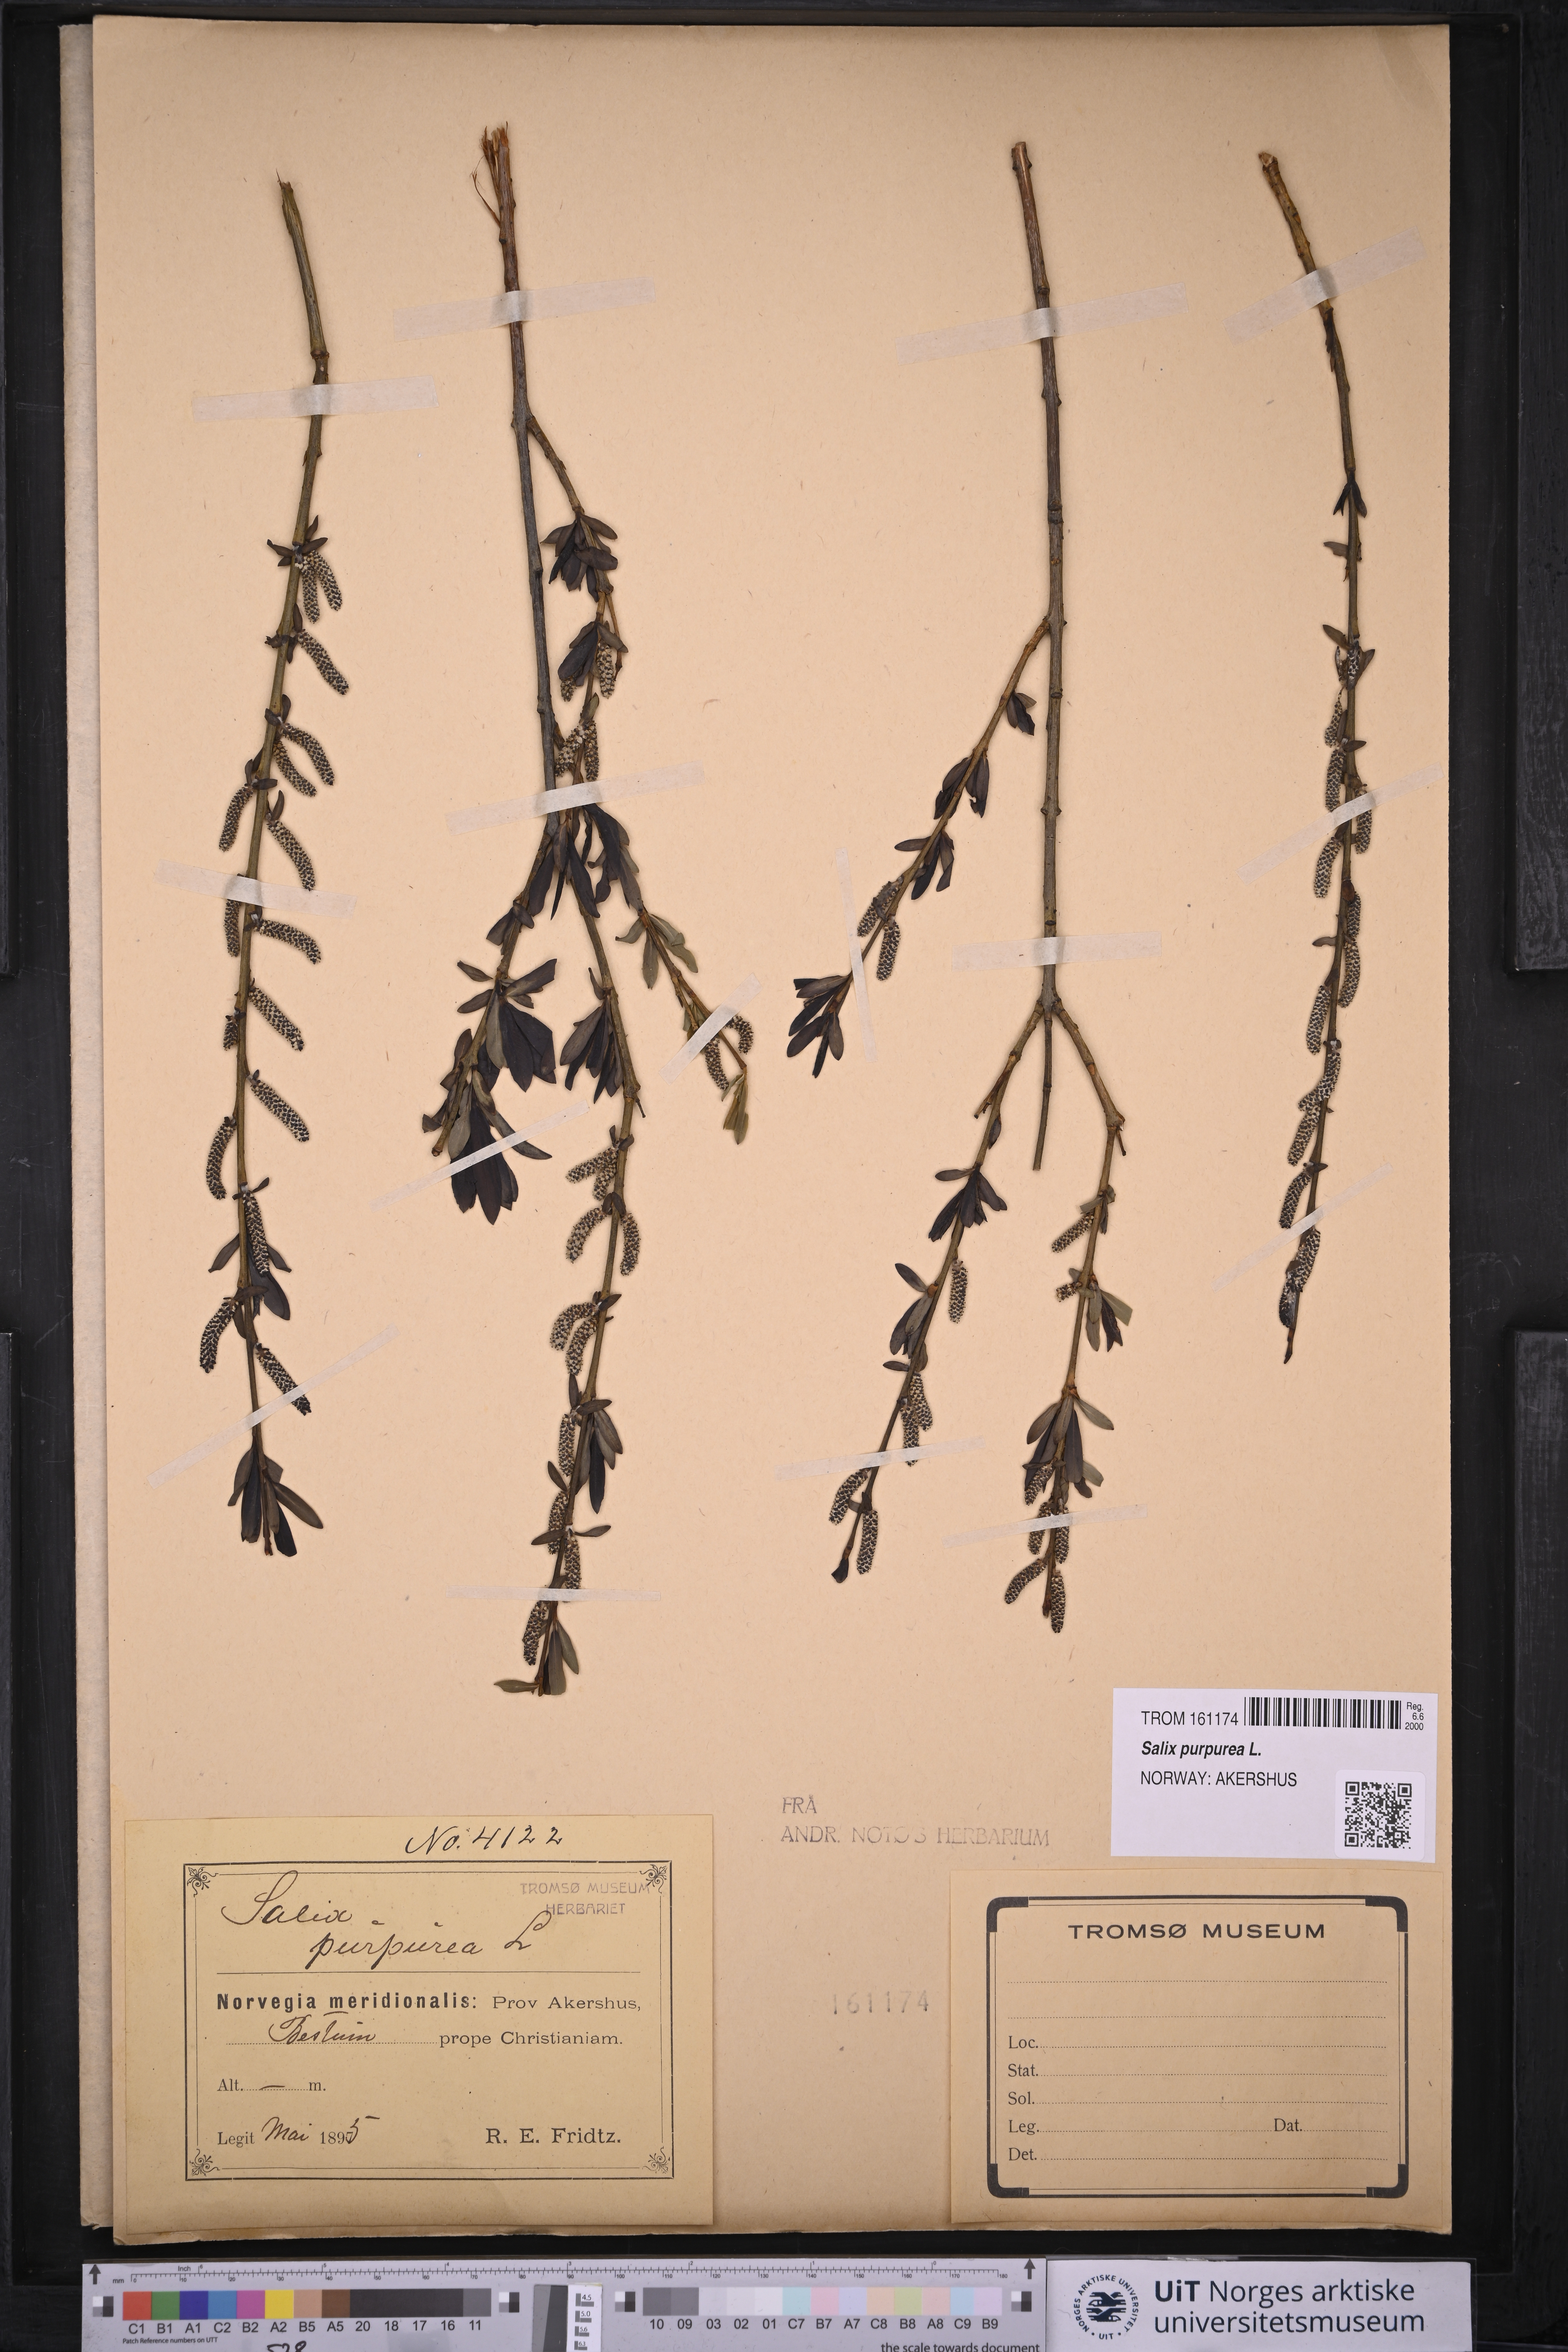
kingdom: Plantae
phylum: Tracheophyta
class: Magnoliopsida
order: Malpighiales
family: Salicaceae
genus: Salix
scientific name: Salix purpurea
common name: Purple willow
